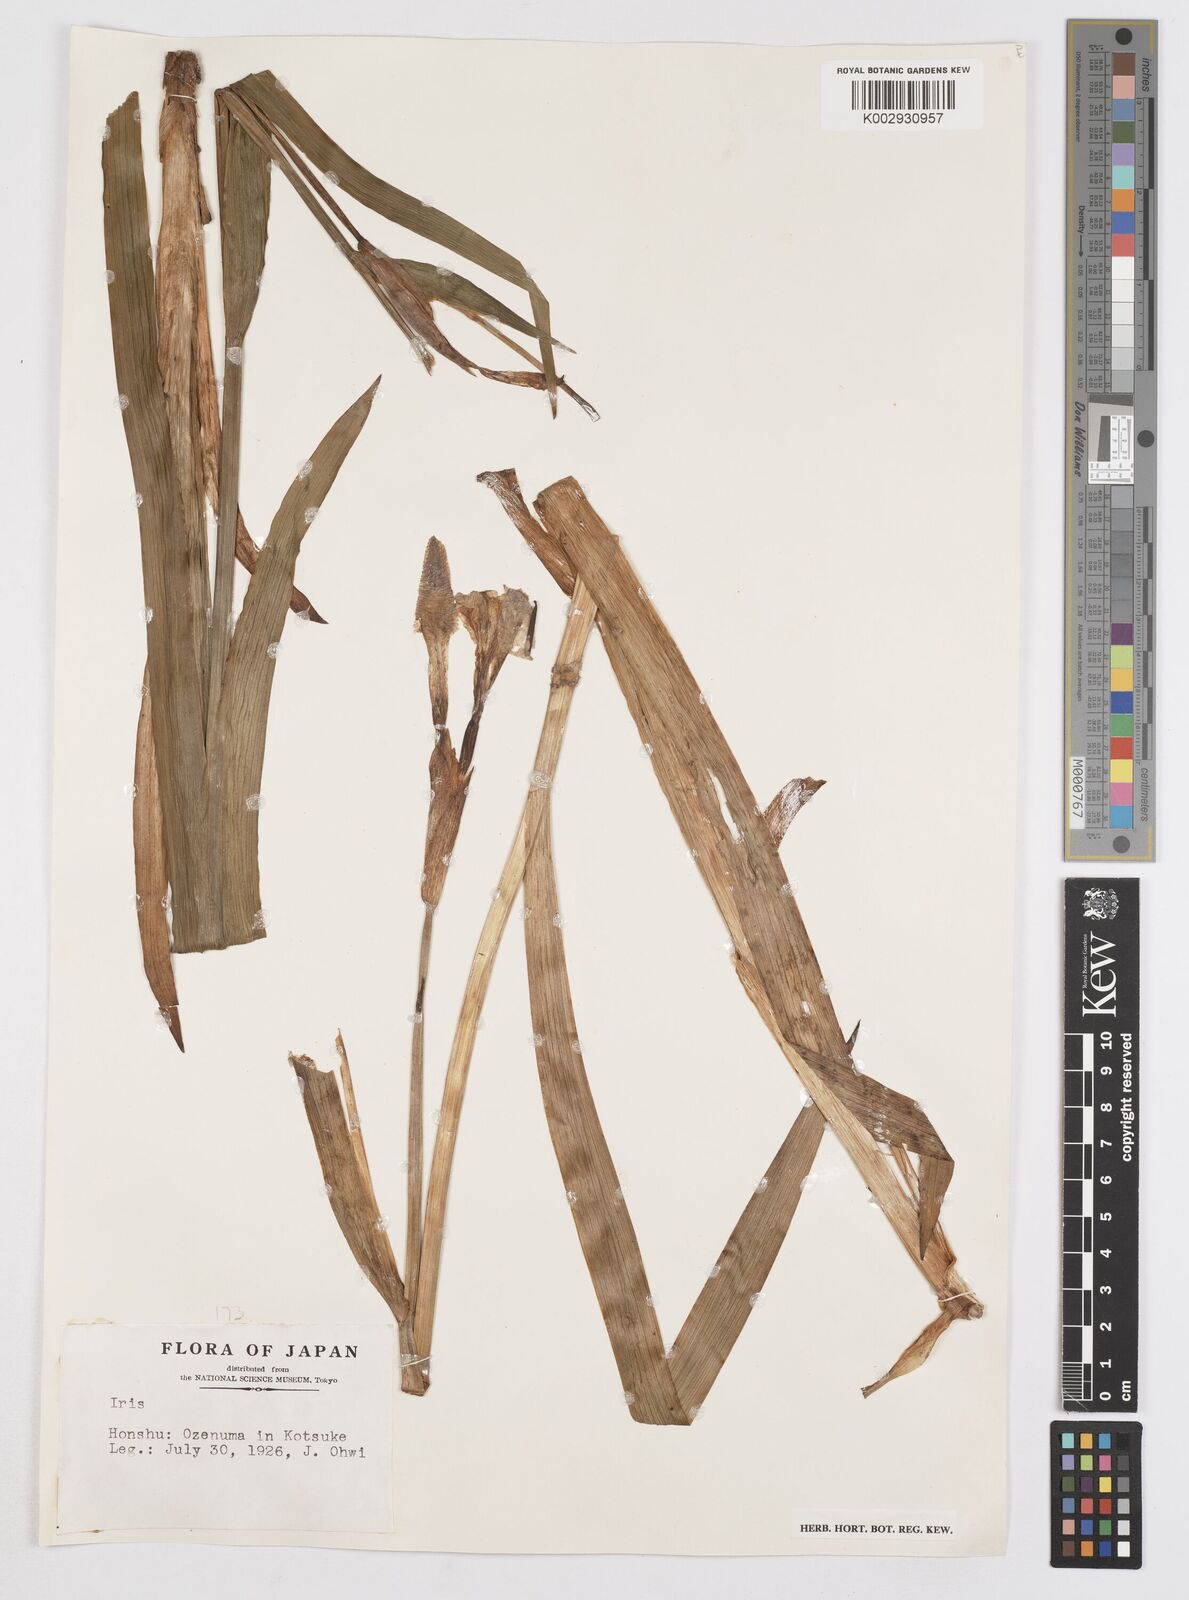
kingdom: Plantae
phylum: Tracheophyta
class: Liliopsida
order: Asparagales
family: Iridaceae
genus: Iris
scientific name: Iris
